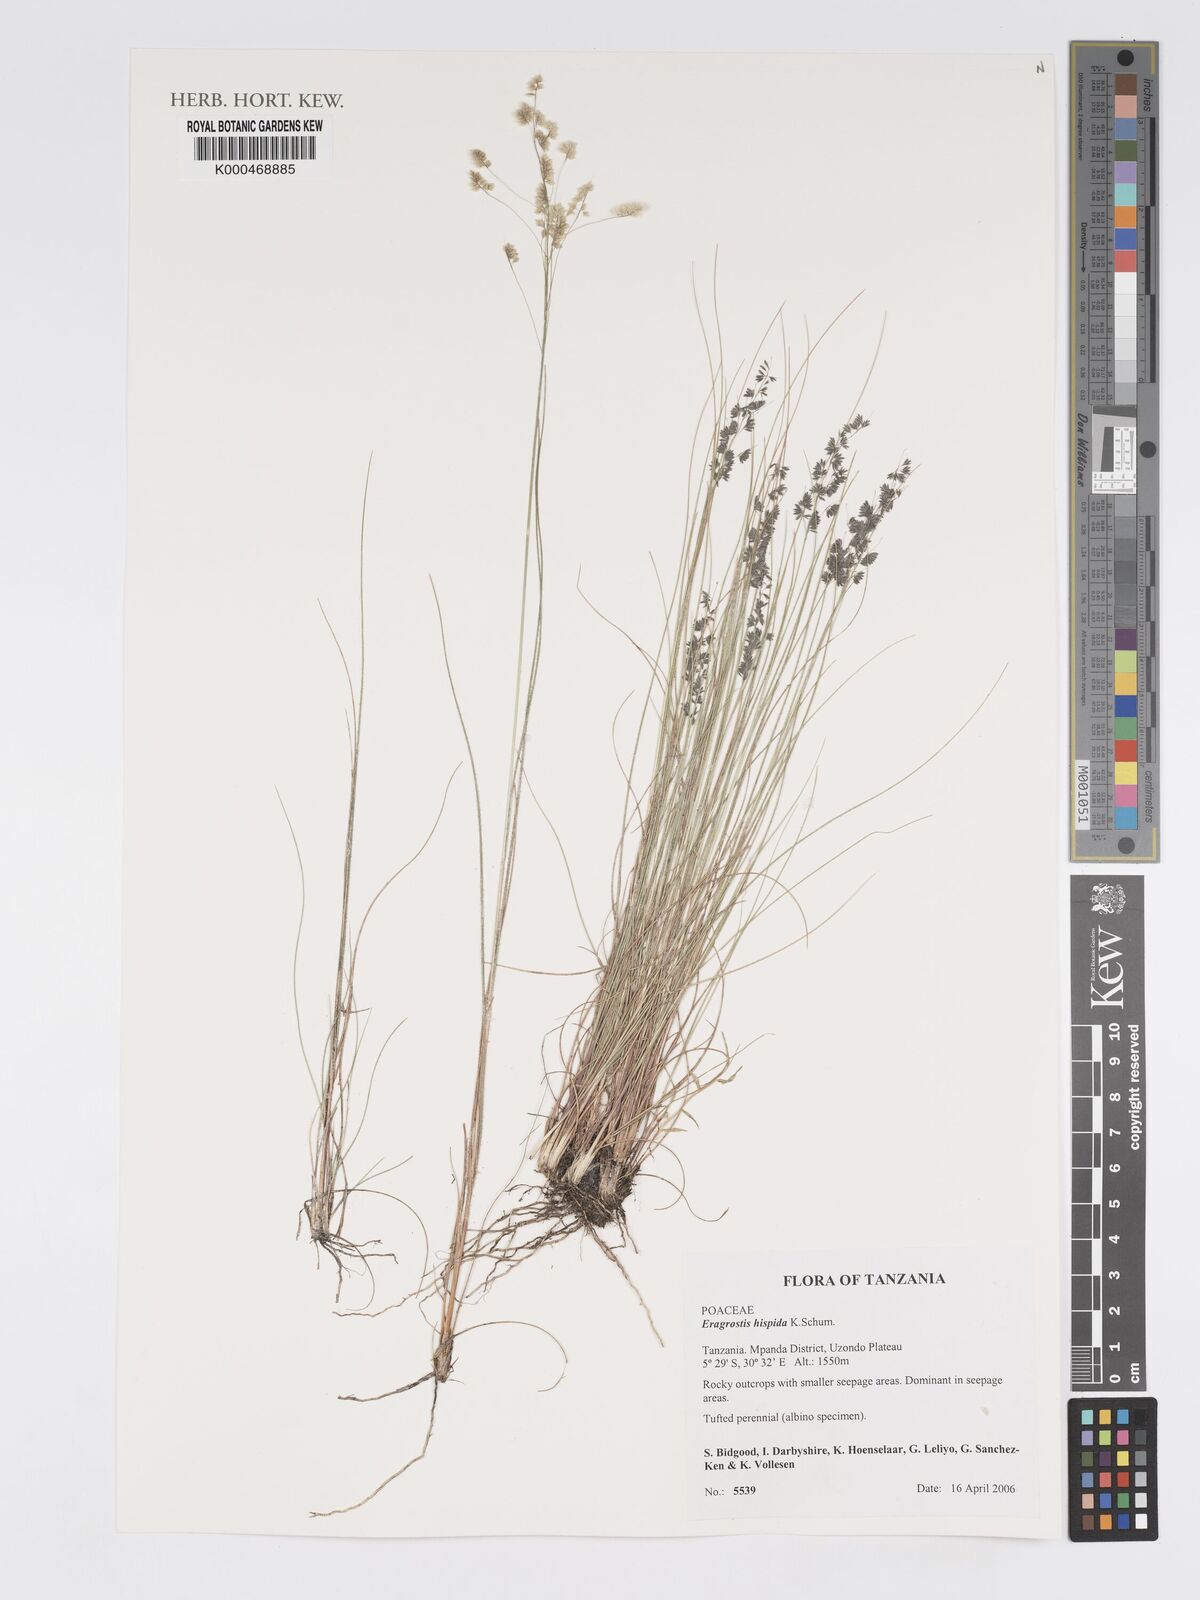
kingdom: Plantae
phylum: Tracheophyta
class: Liliopsida
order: Poales
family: Poaceae
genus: Eragrostis
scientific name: Eragrostis hispida
